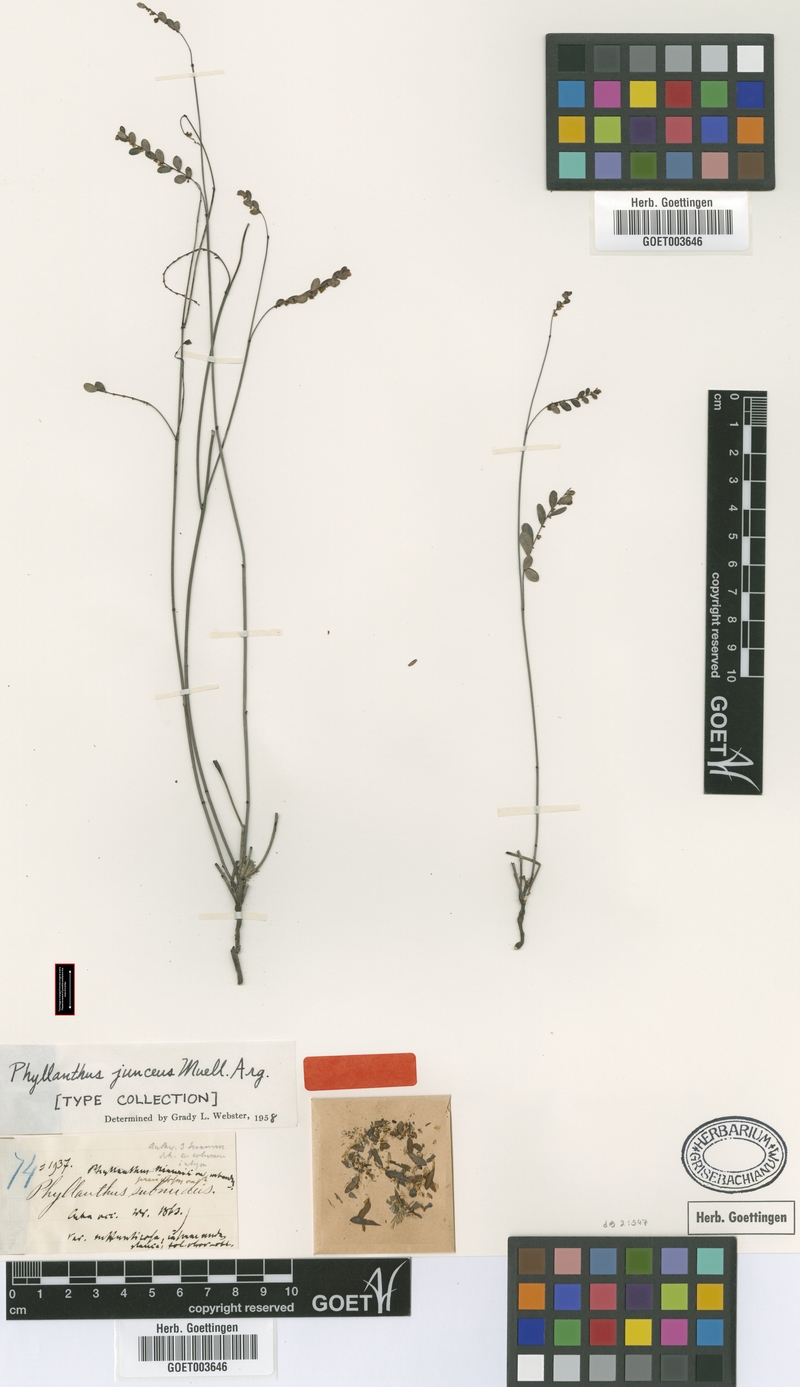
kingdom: Plantae
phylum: Tracheophyta
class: Magnoliopsida
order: Malpighiales
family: Phyllanthaceae
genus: Phyllanthus
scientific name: Phyllanthus junceus
